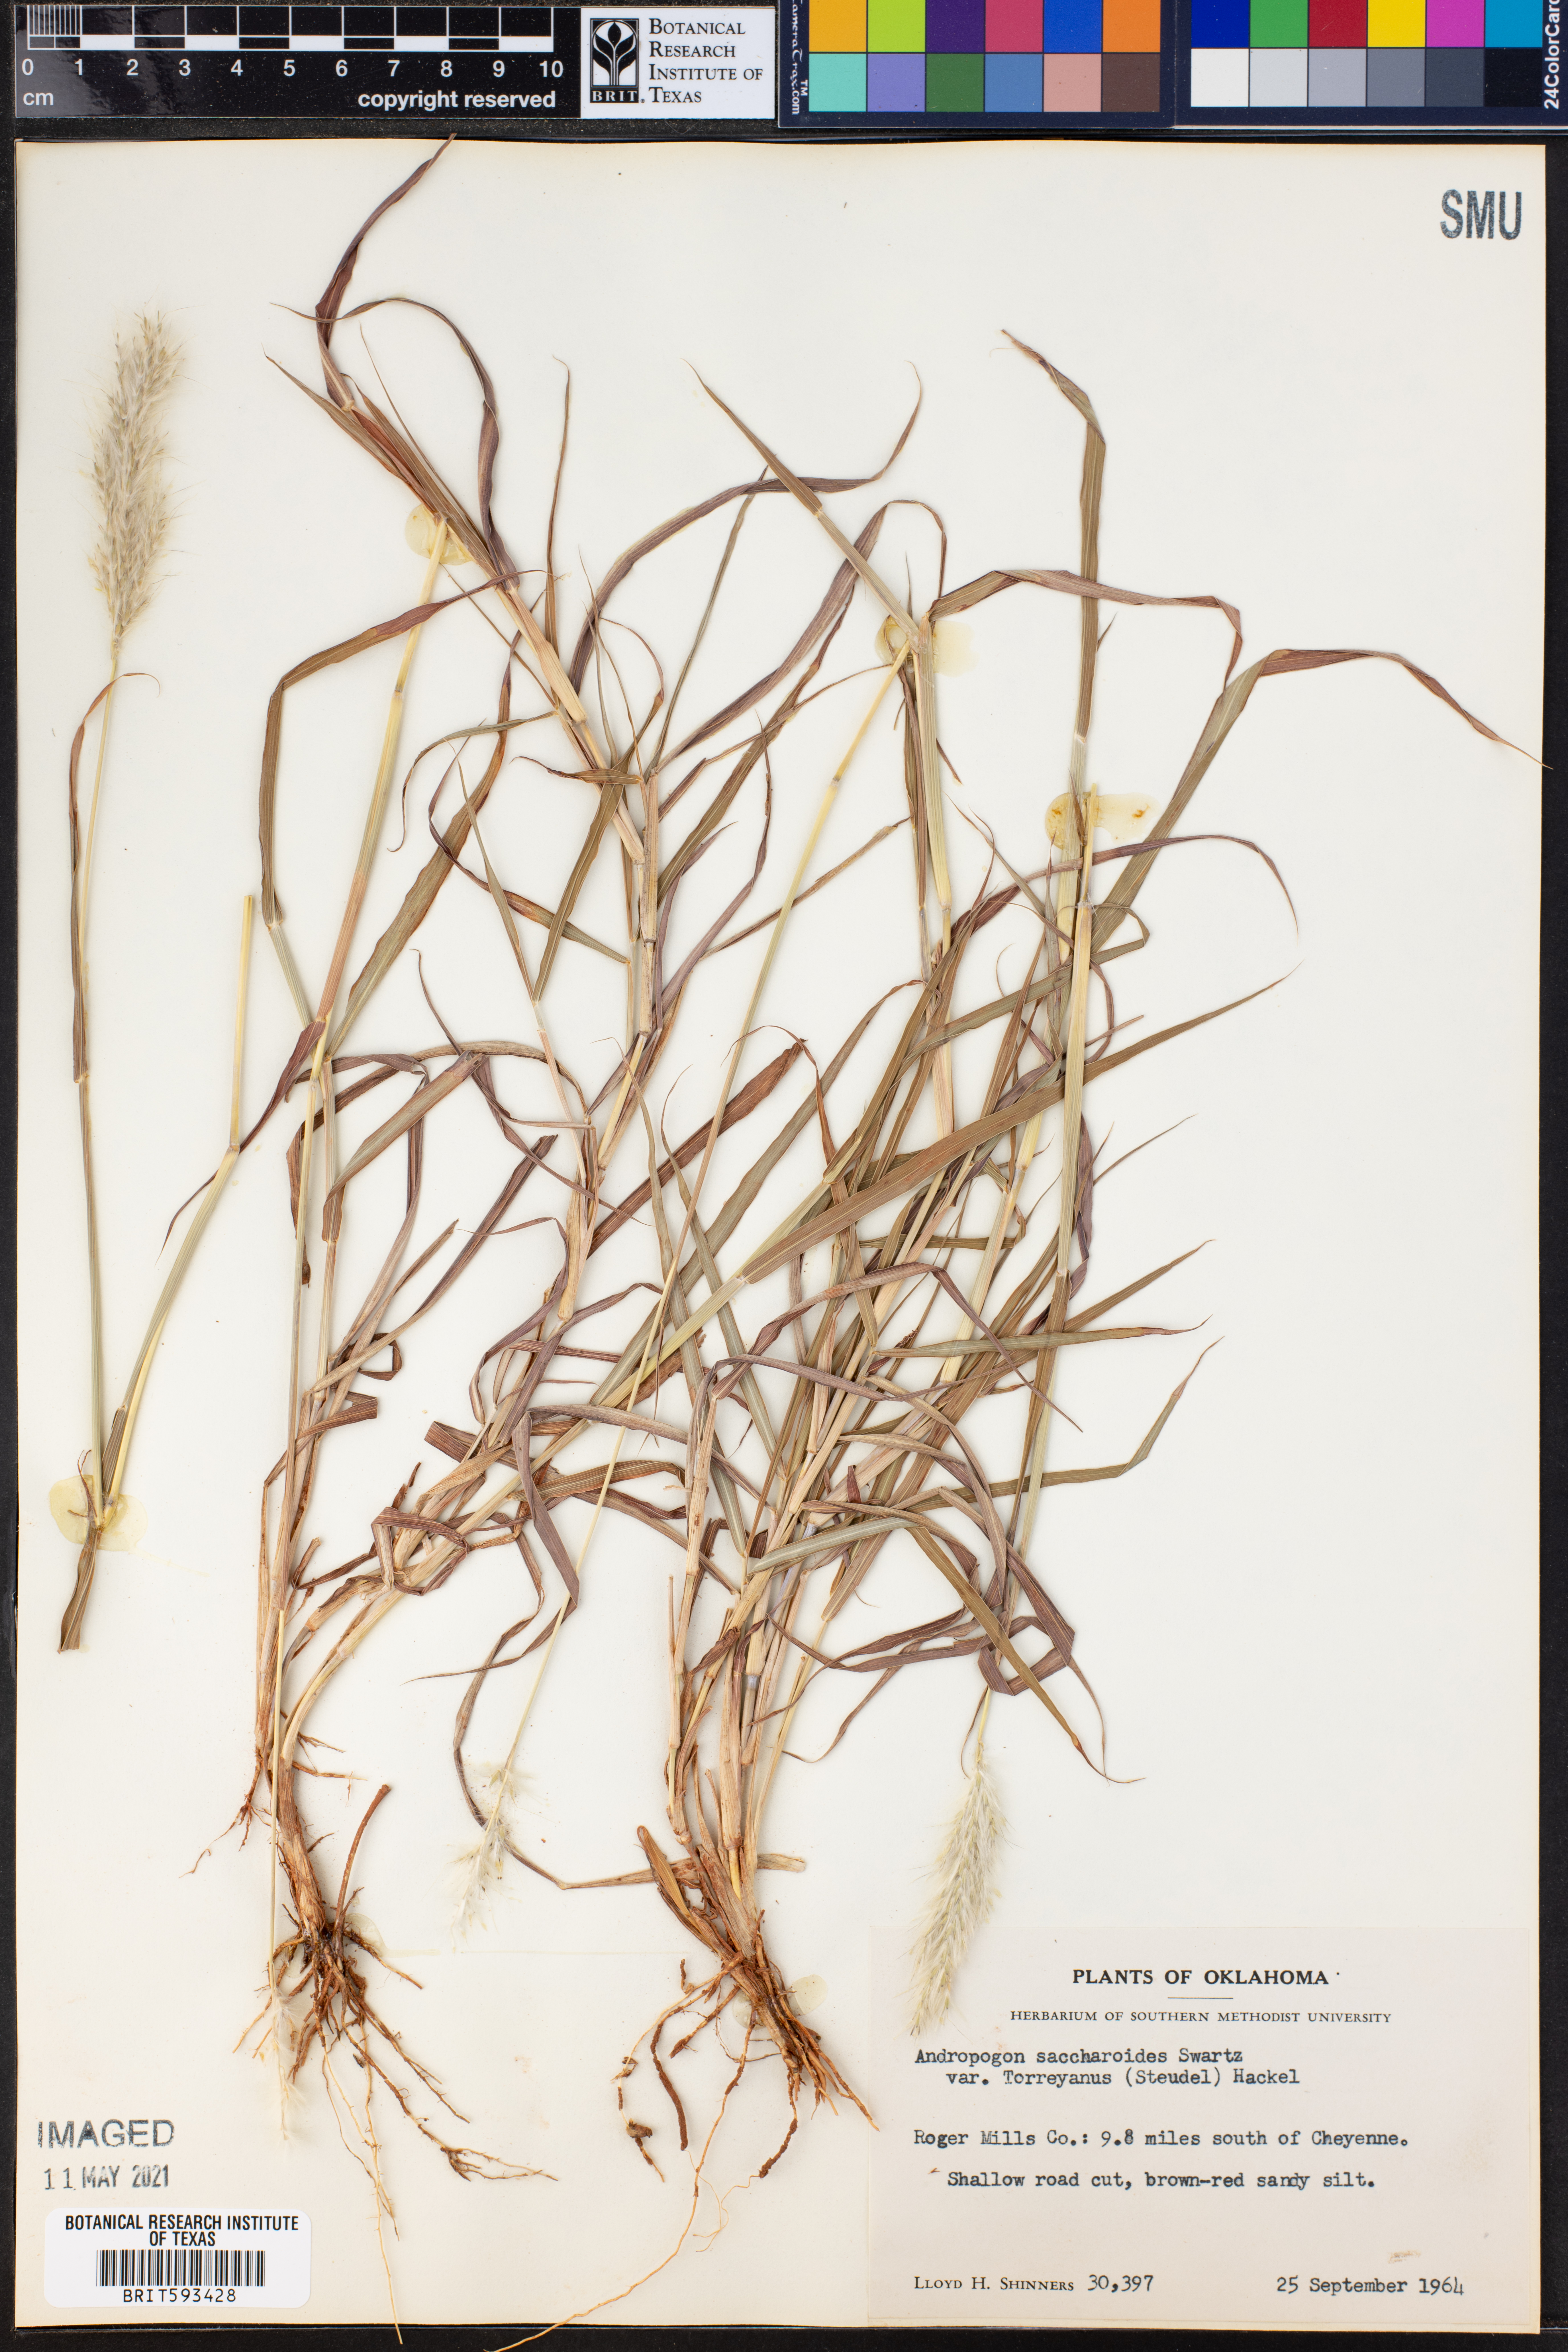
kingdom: Plantae
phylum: Tracheophyta
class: Liliopsida
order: Poales
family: Poaceae
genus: Bothriochloa
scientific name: Bothriochloa torreyana
